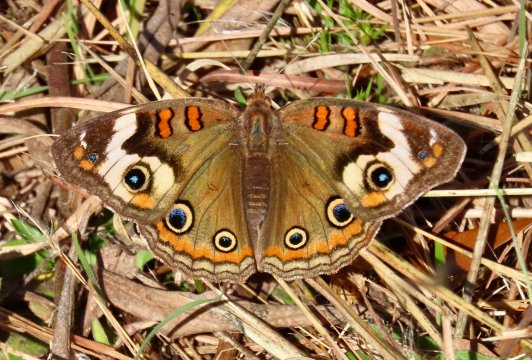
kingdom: Animalia
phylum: Arthropoda
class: Insecta
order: Lepidoptera
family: Nymphalidae
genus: Junonia
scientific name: Junonia coenia
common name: Common Buckeye
